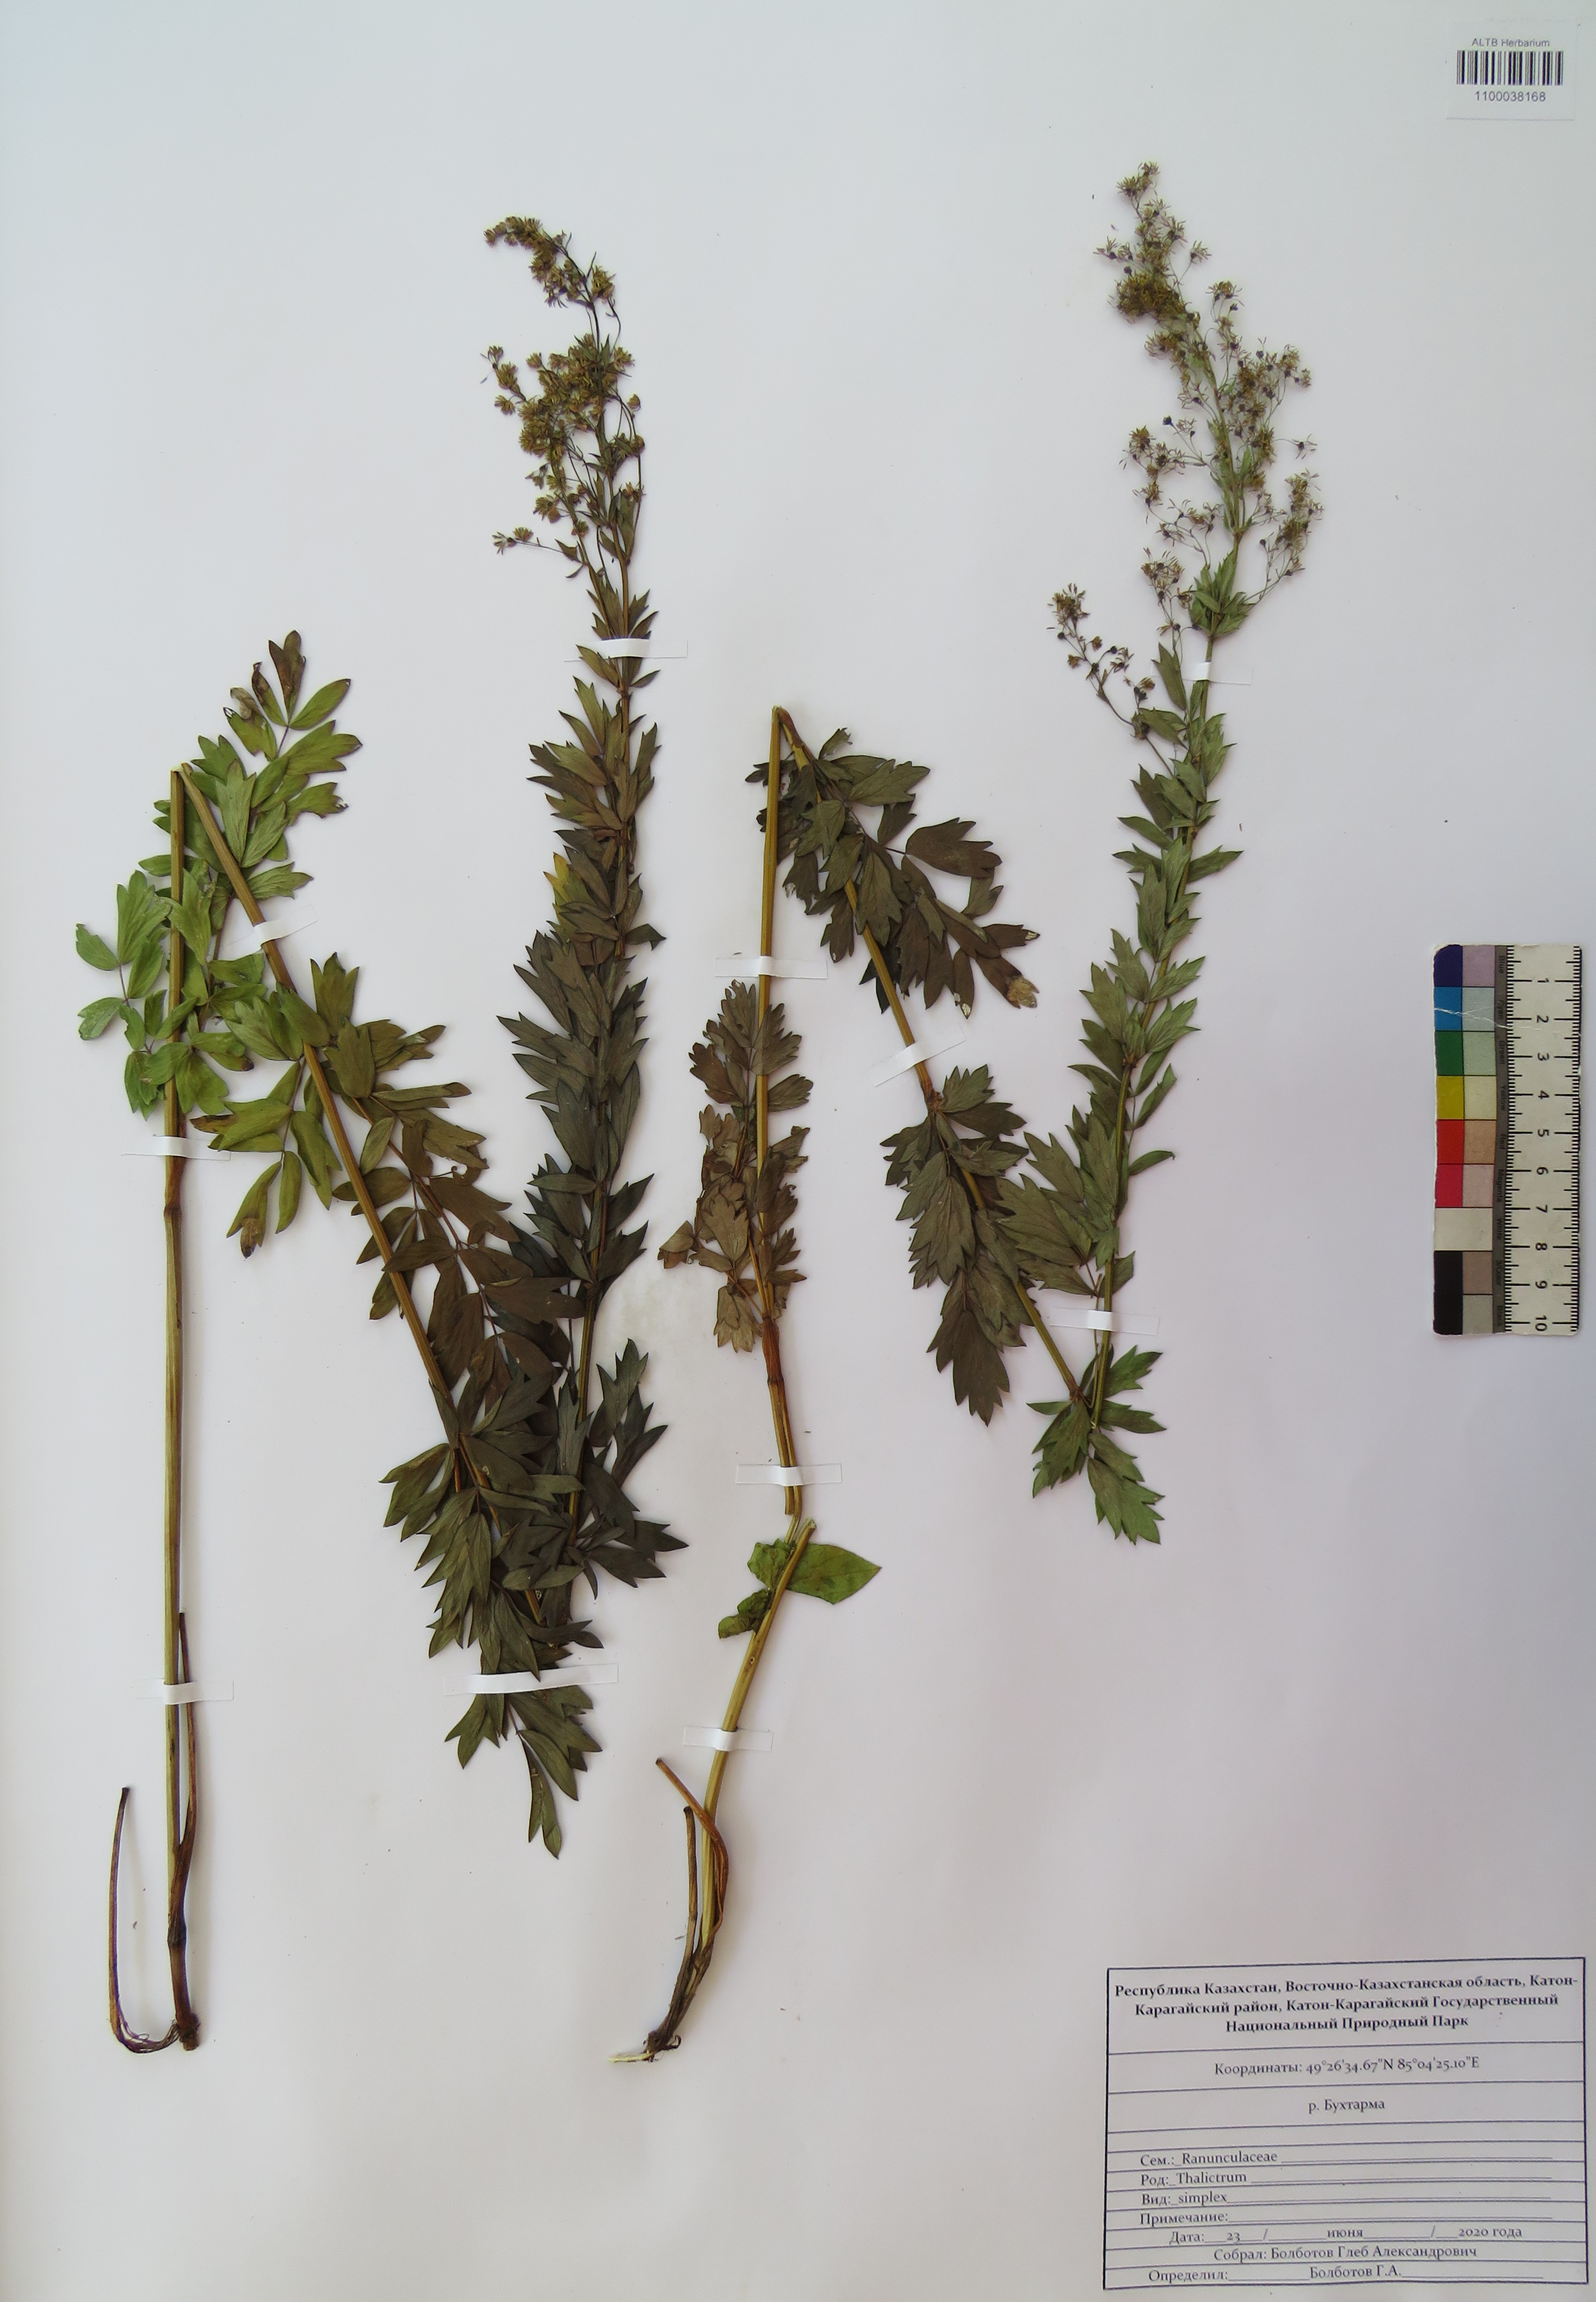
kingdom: Plantae
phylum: Tracheophyta
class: Magnoliopsida
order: Ranunculales
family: Ranunculaceae
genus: Thalictrum
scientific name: Thalictrum simplex
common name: Small meadow-rue
